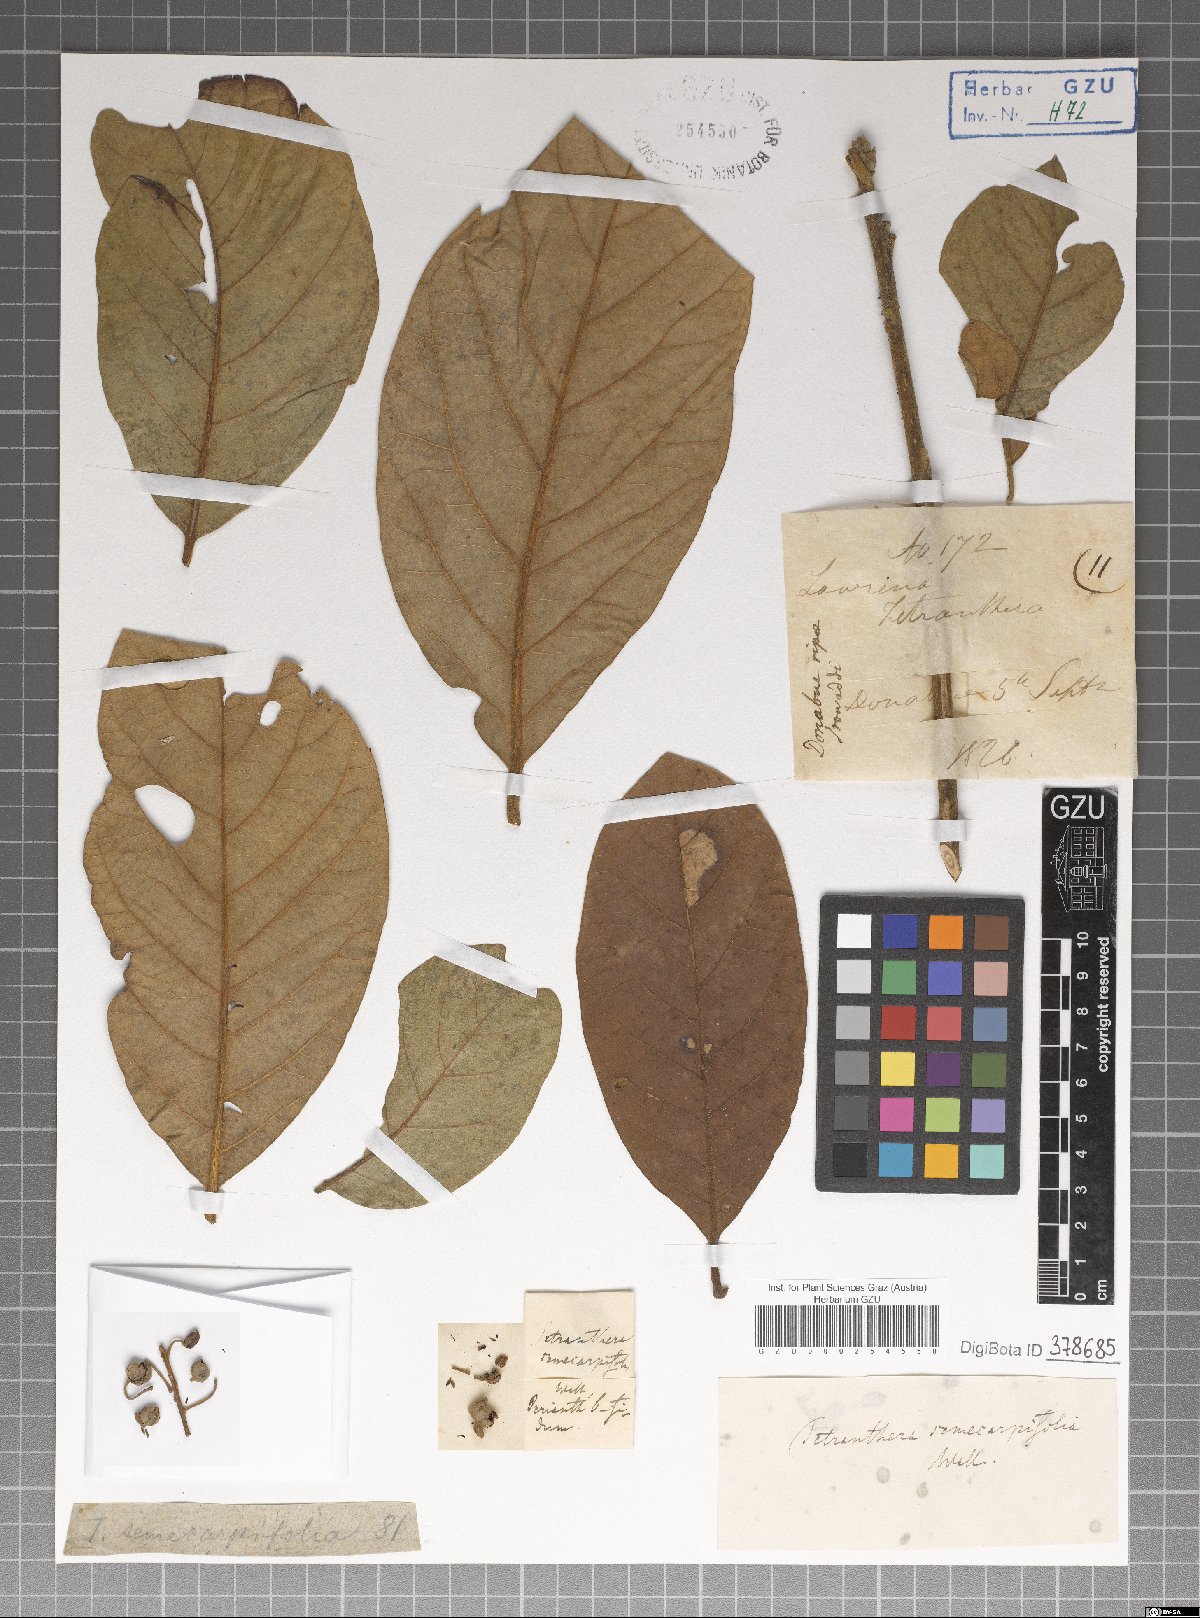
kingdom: Plantae
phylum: Tracheophyta
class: Magnoliopsida
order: Laurales
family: Lauraceae
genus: Litsea
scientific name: Litsea semecarpifolia
